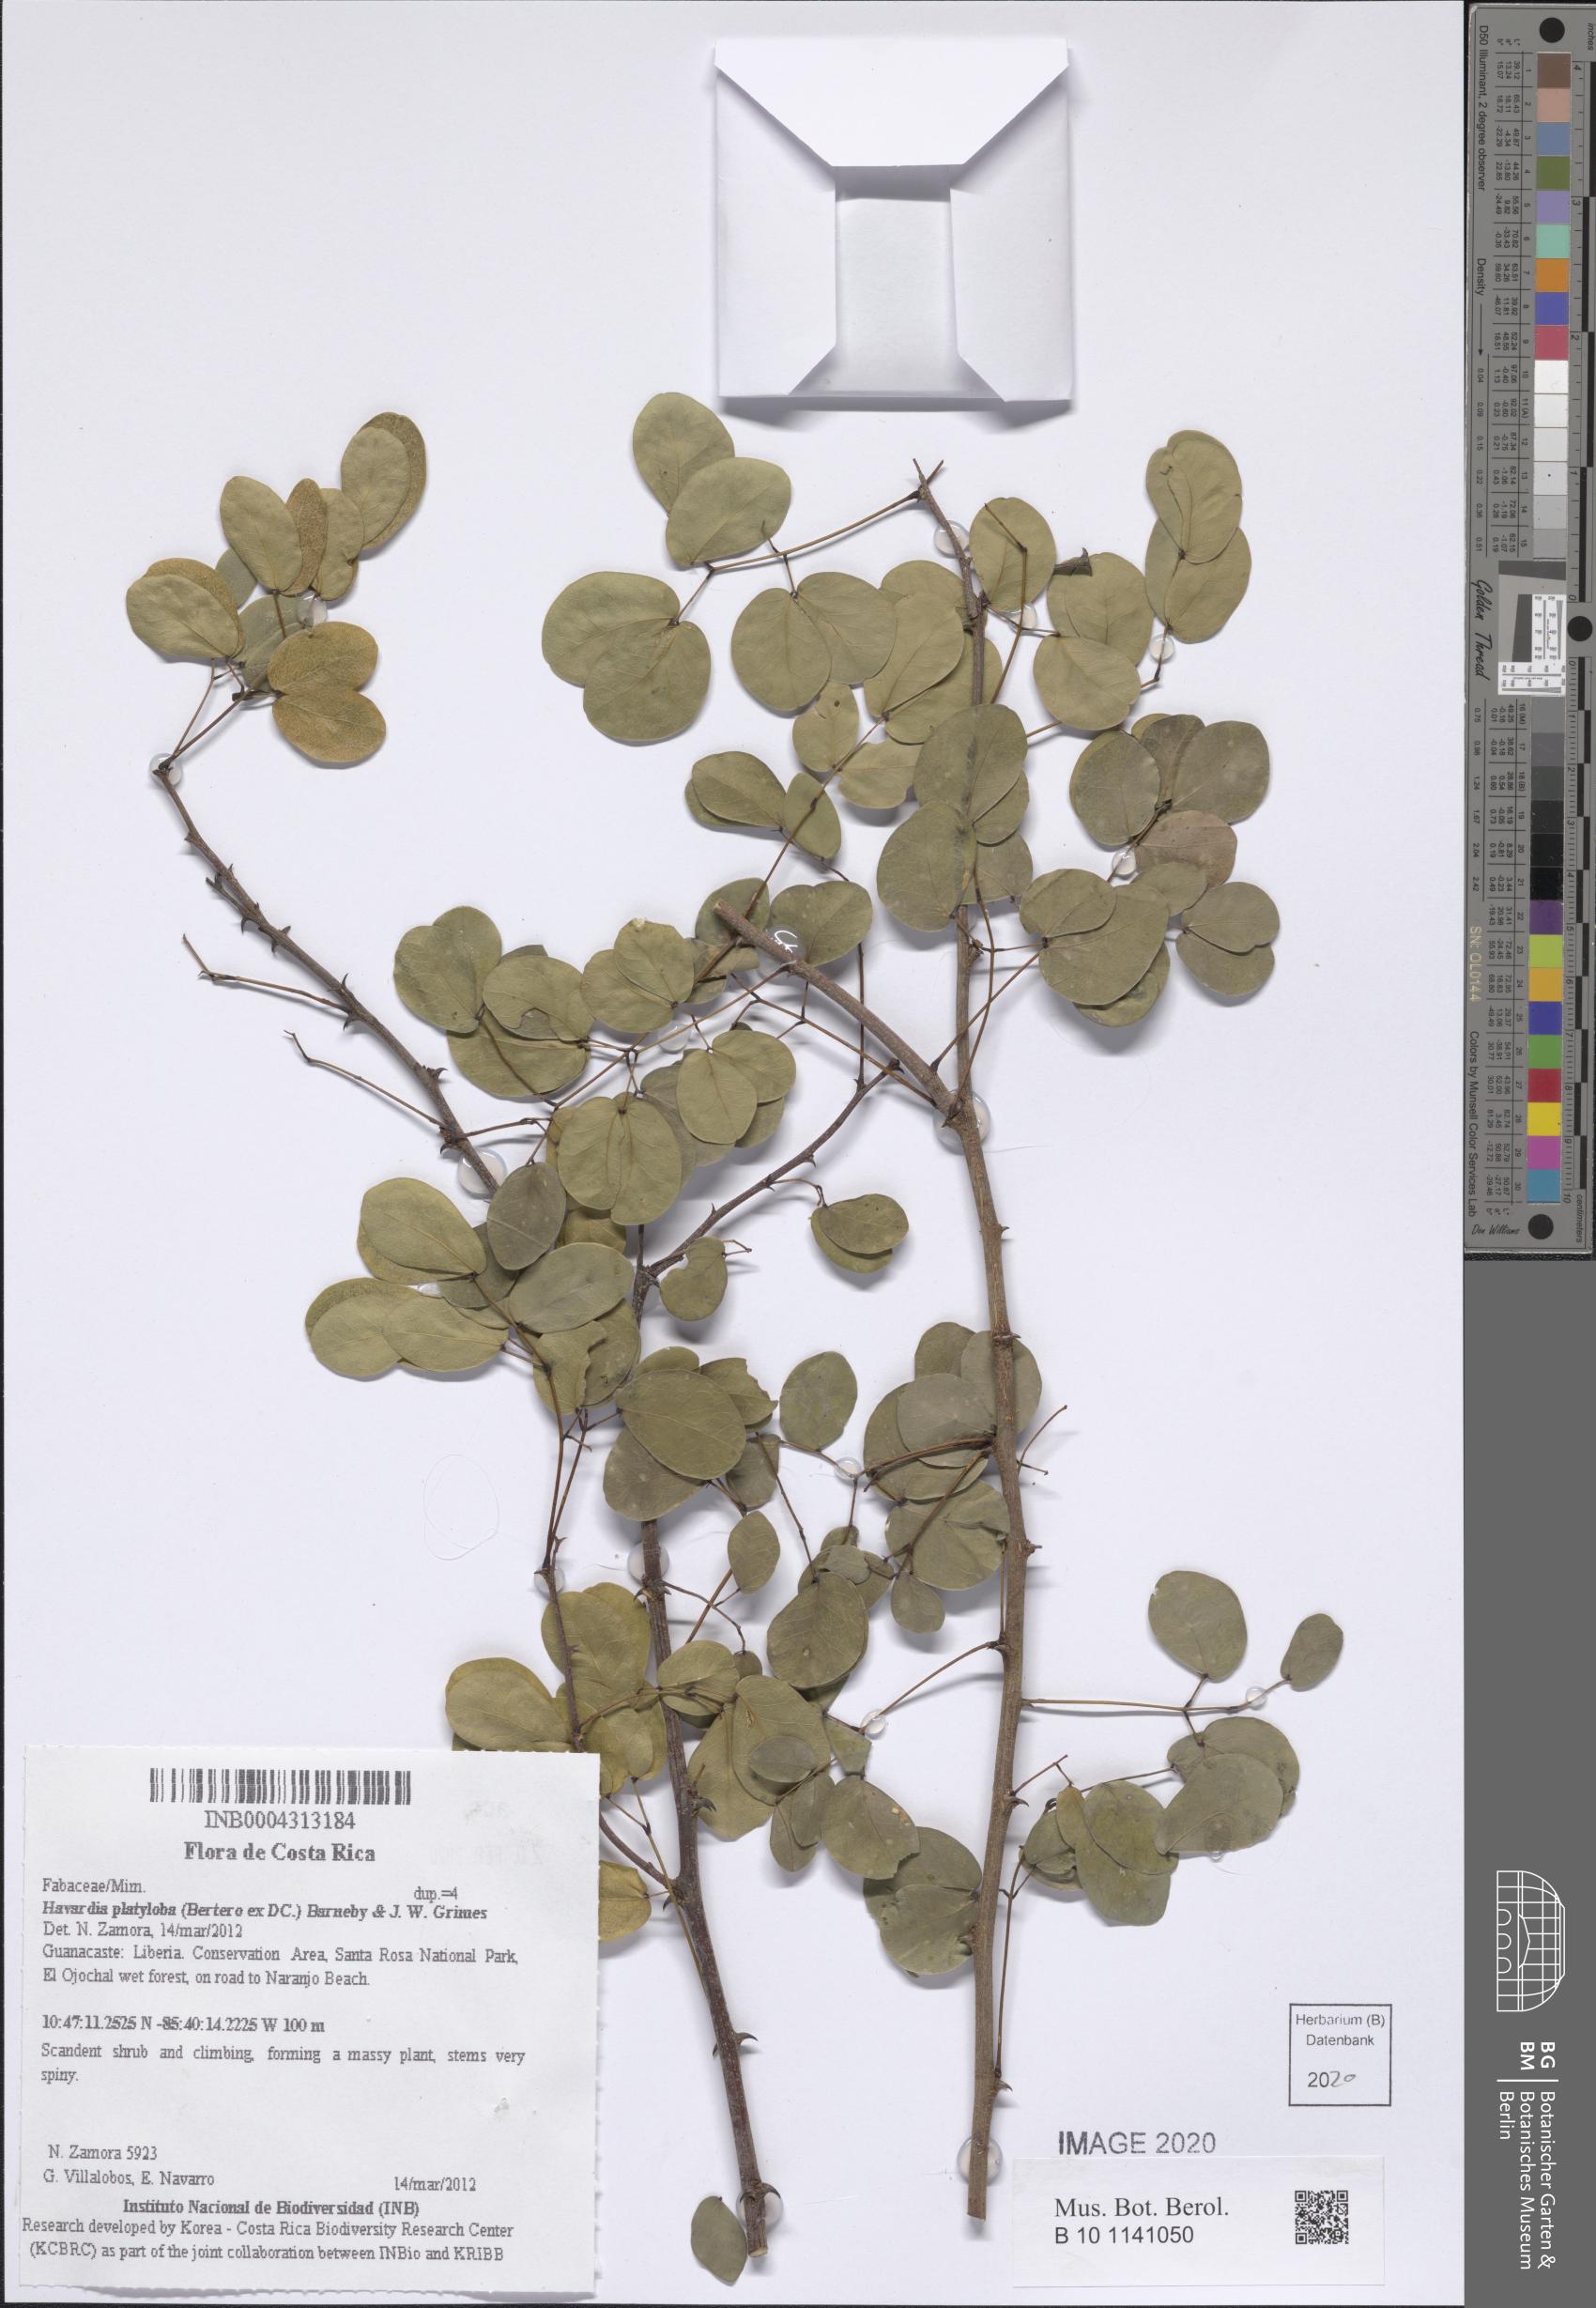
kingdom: Plantae
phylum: Tracheophyta
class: Magnoliopsida
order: Fabales
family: Fabaceae
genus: Havardia
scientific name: Havardia platyloba
